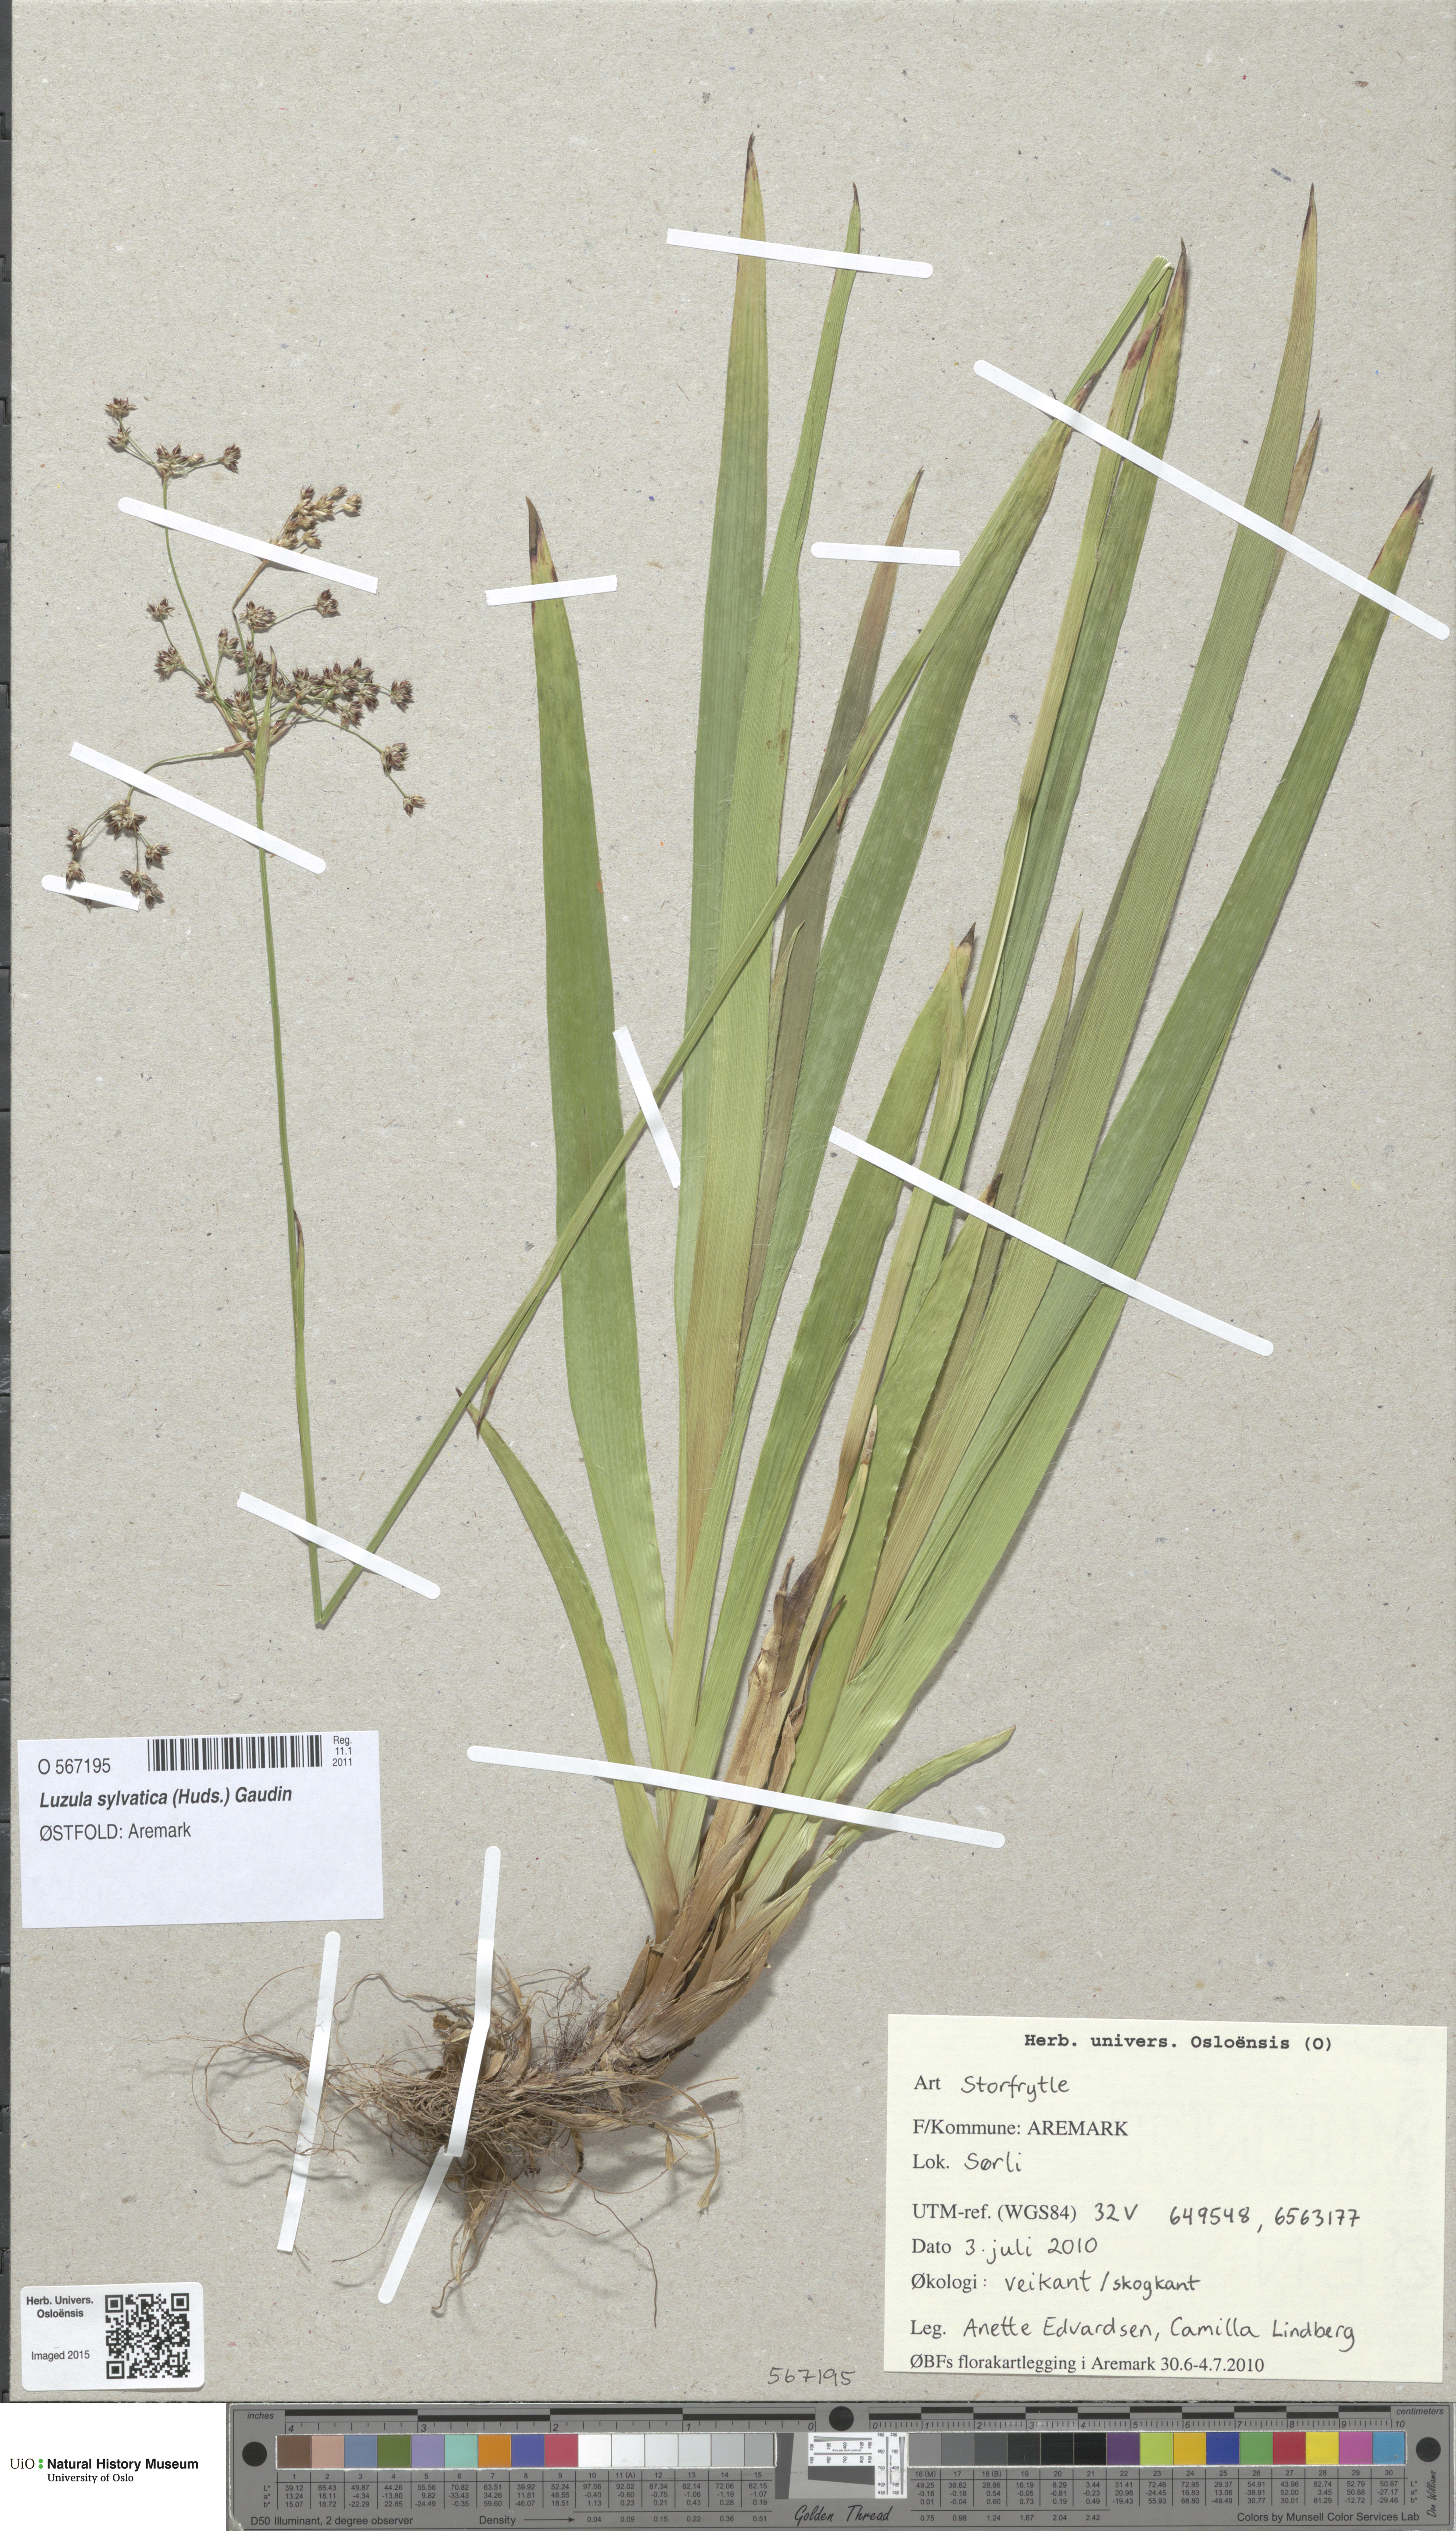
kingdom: Plantae
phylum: Tracheophyta
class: Liliopsida
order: Poales
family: Juncaceae
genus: Luzula
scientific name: Luzula sylvatica
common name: Great wood-rush
